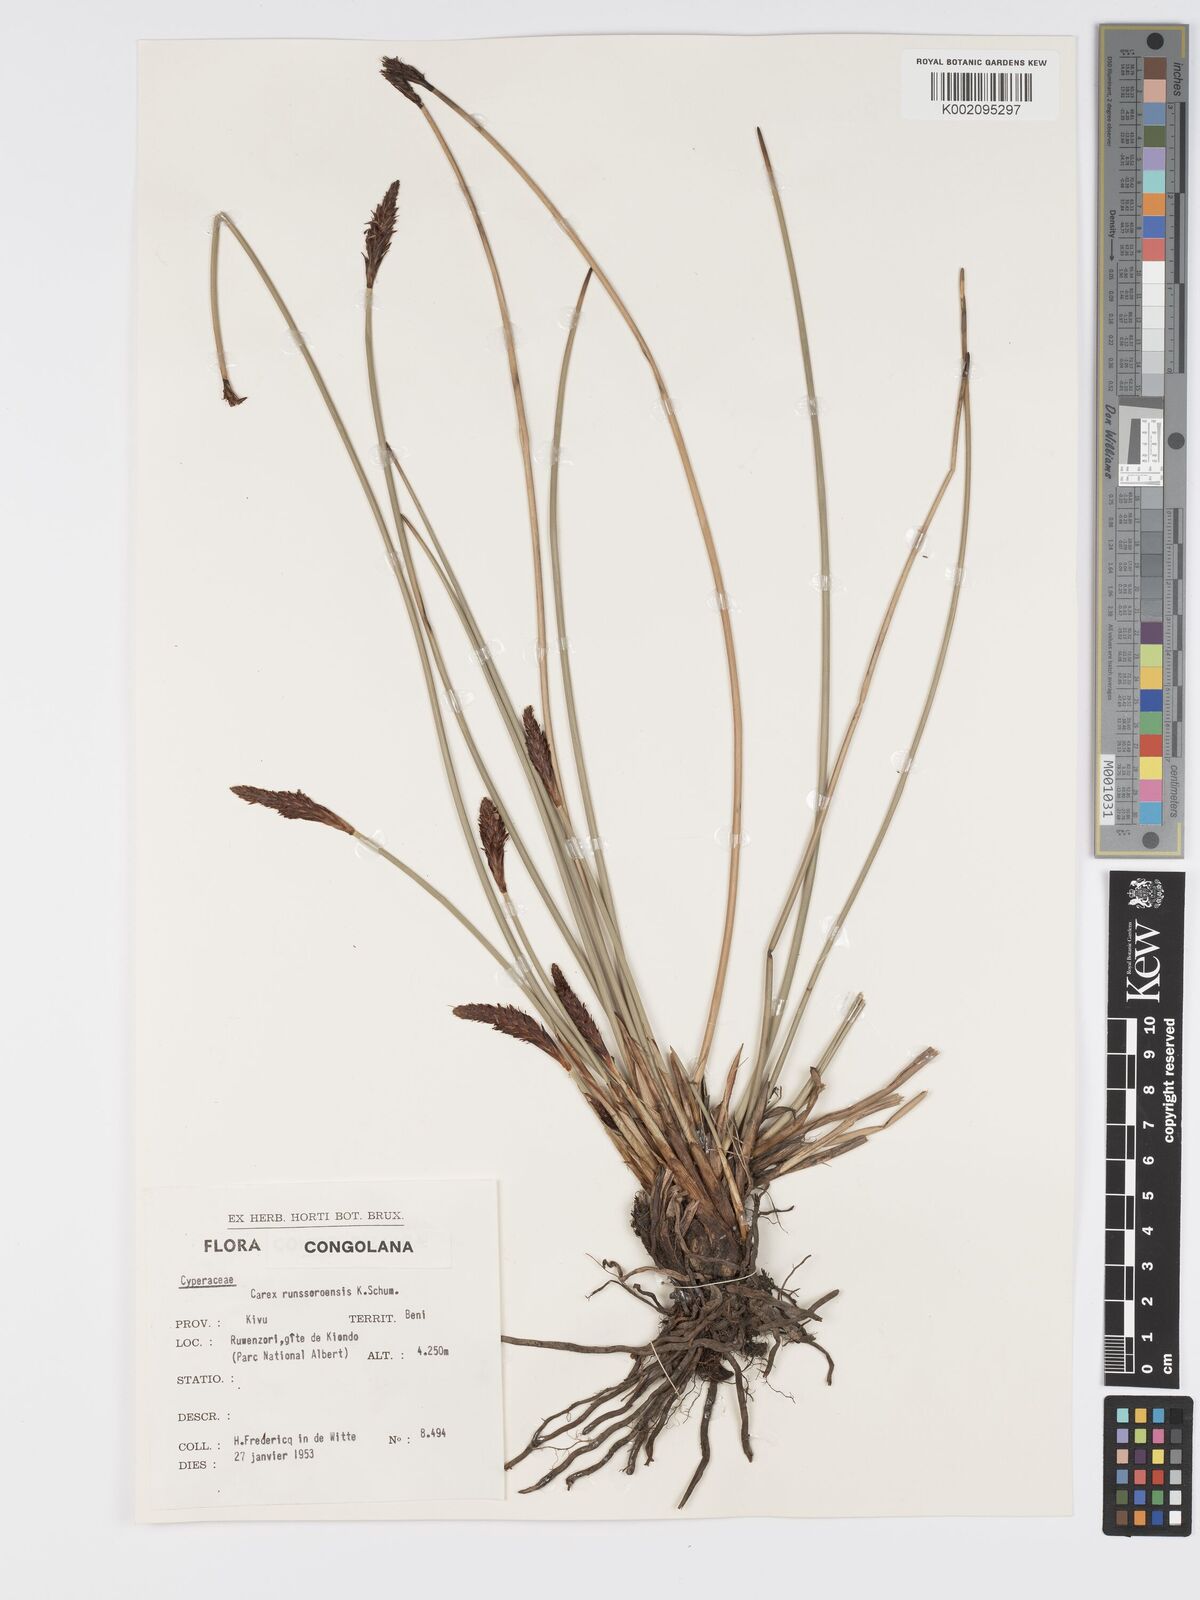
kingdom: Plantae
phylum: Tracheophyta
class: Liliopsida
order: Poales
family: Cyperaceae
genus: Carex
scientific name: Carex runssoroensis
